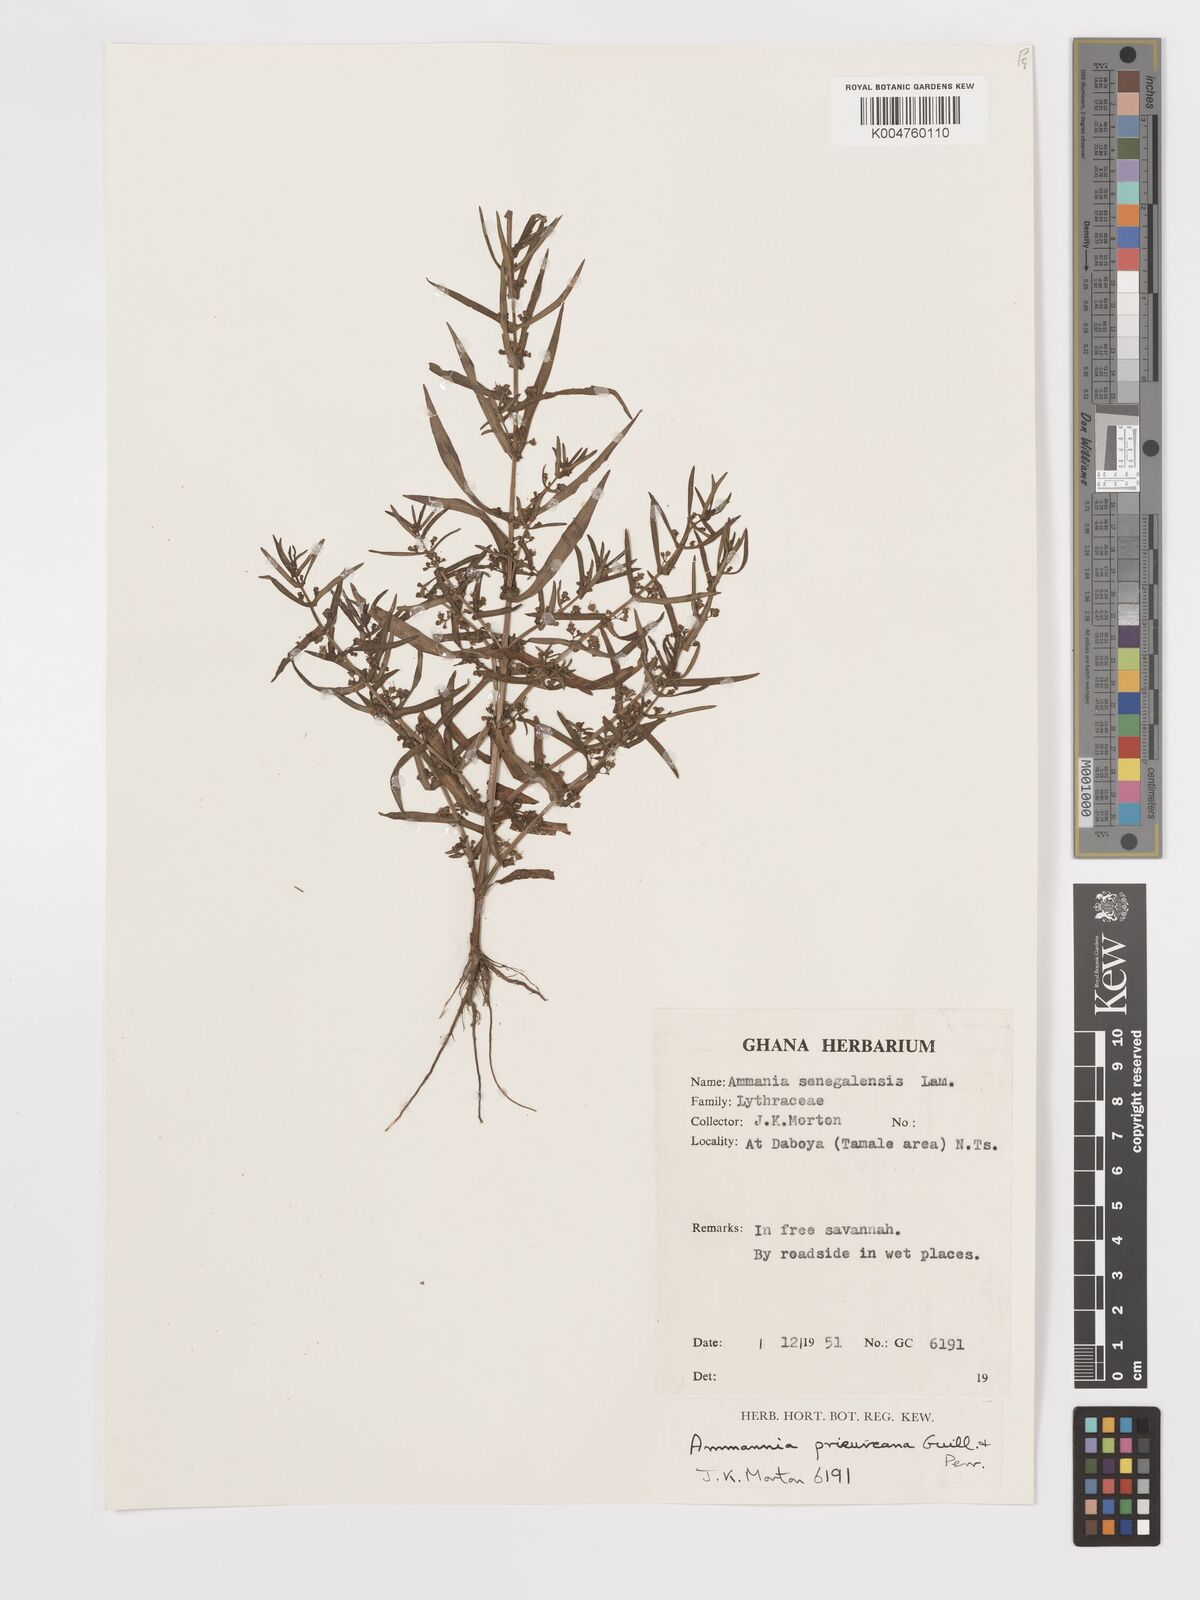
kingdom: Plantae
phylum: Tracheophyta
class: Magnoliopsida
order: Myrtales
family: Lythraceae
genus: Ammannia
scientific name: Ammannia prieuriana
